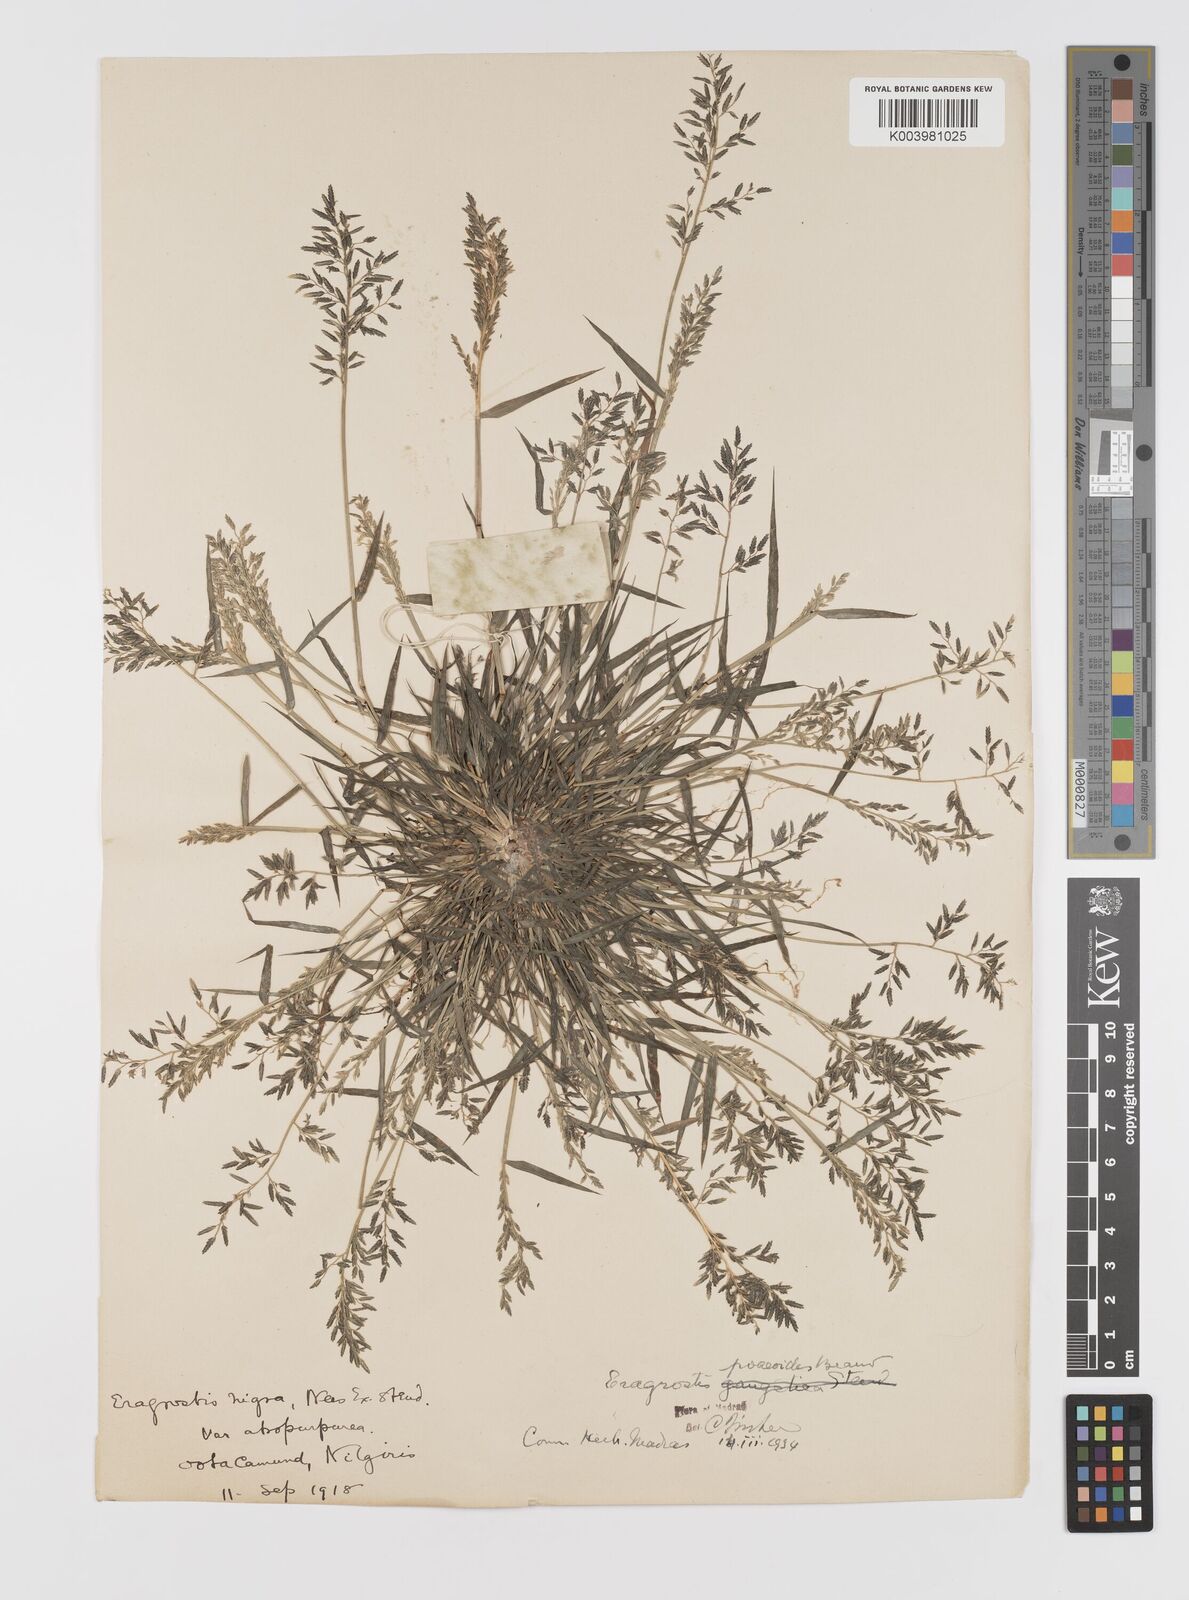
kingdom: Plantae
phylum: Tracheophyta
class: Liliopsida
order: Poales
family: Poaceae
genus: Eragrostis
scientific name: Eragrostis minor
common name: Small love-grass
